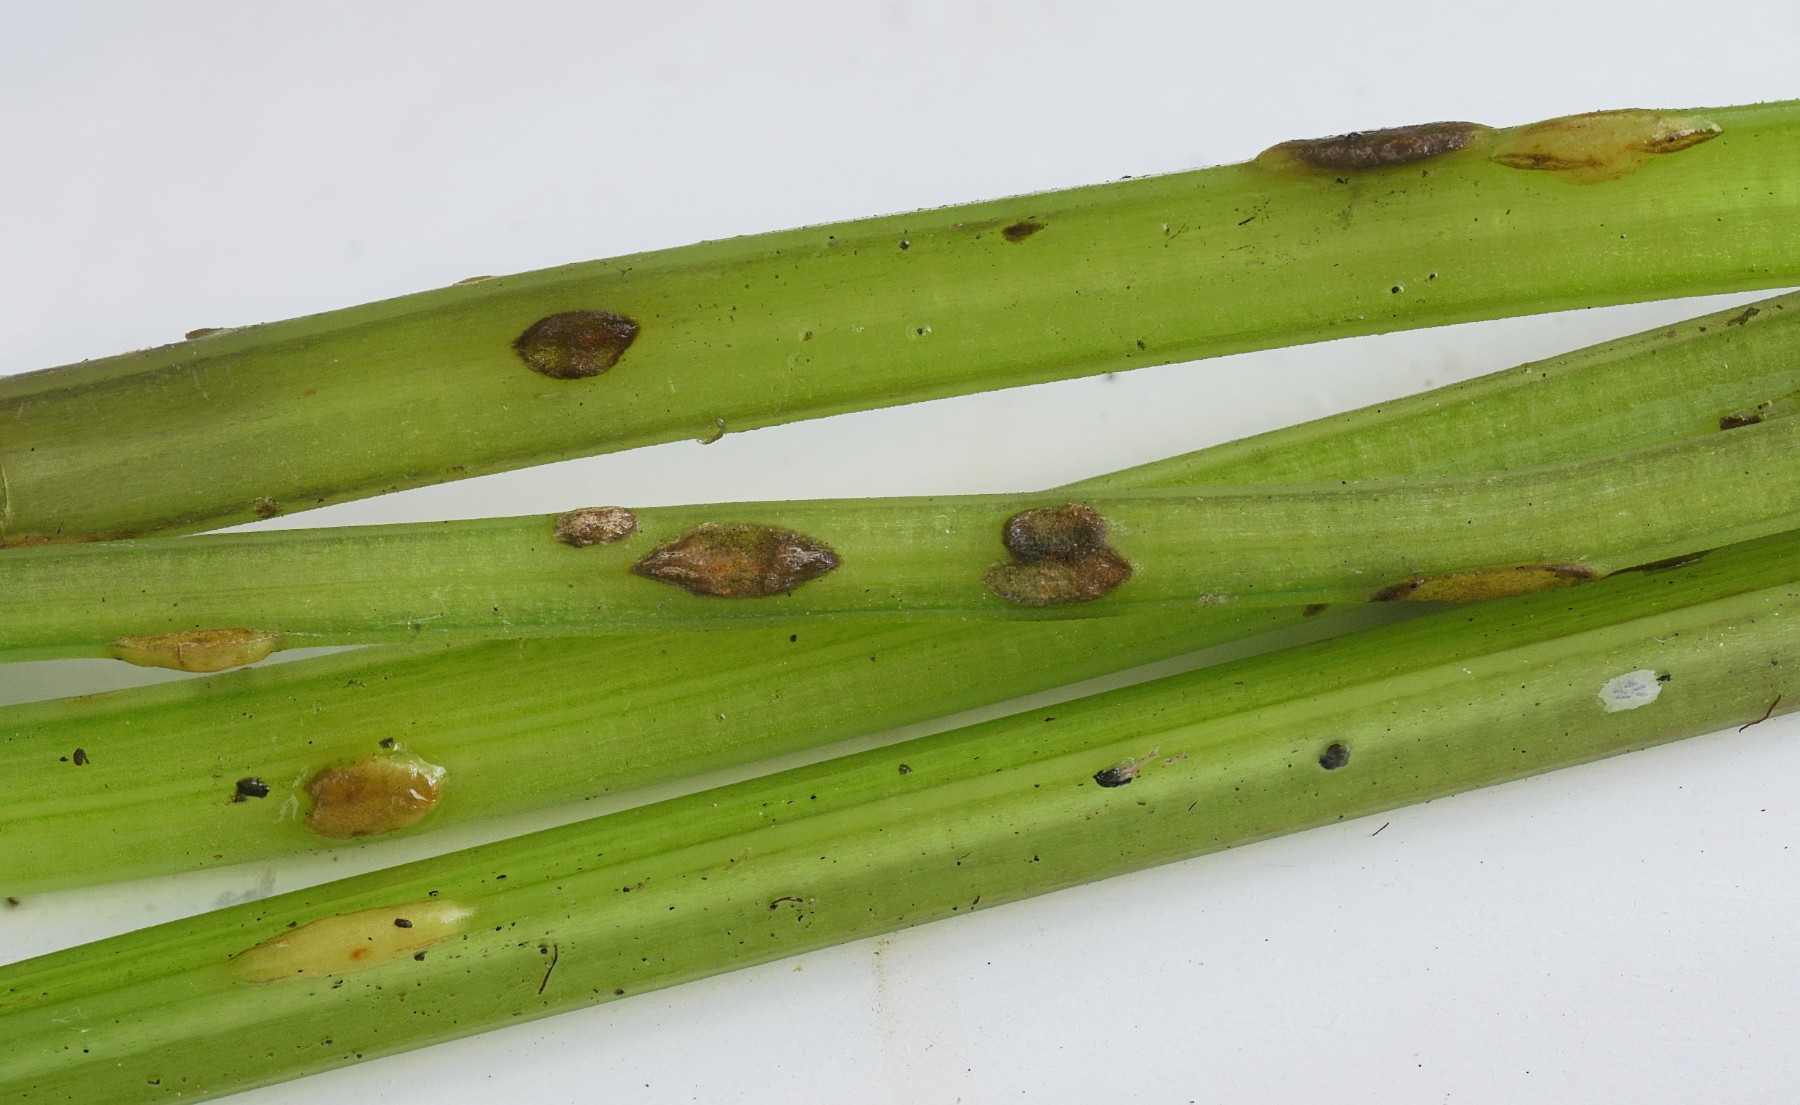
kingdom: Fungi
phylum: Ascomycota
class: Taphrinomycetes
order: Taphrinales
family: Taphrinaceae
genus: Protomyces
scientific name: Protomyces macrosporus
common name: skvalderkål-vablesæk
